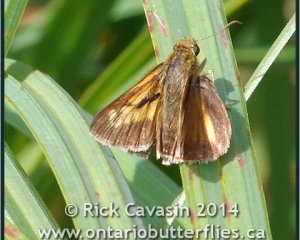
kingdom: Animalia
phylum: Arthropoda
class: Insecta
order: Lepidoptera
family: Hesperiidae
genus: Euphyes
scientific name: Euphyes dion
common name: Dion Skipper
